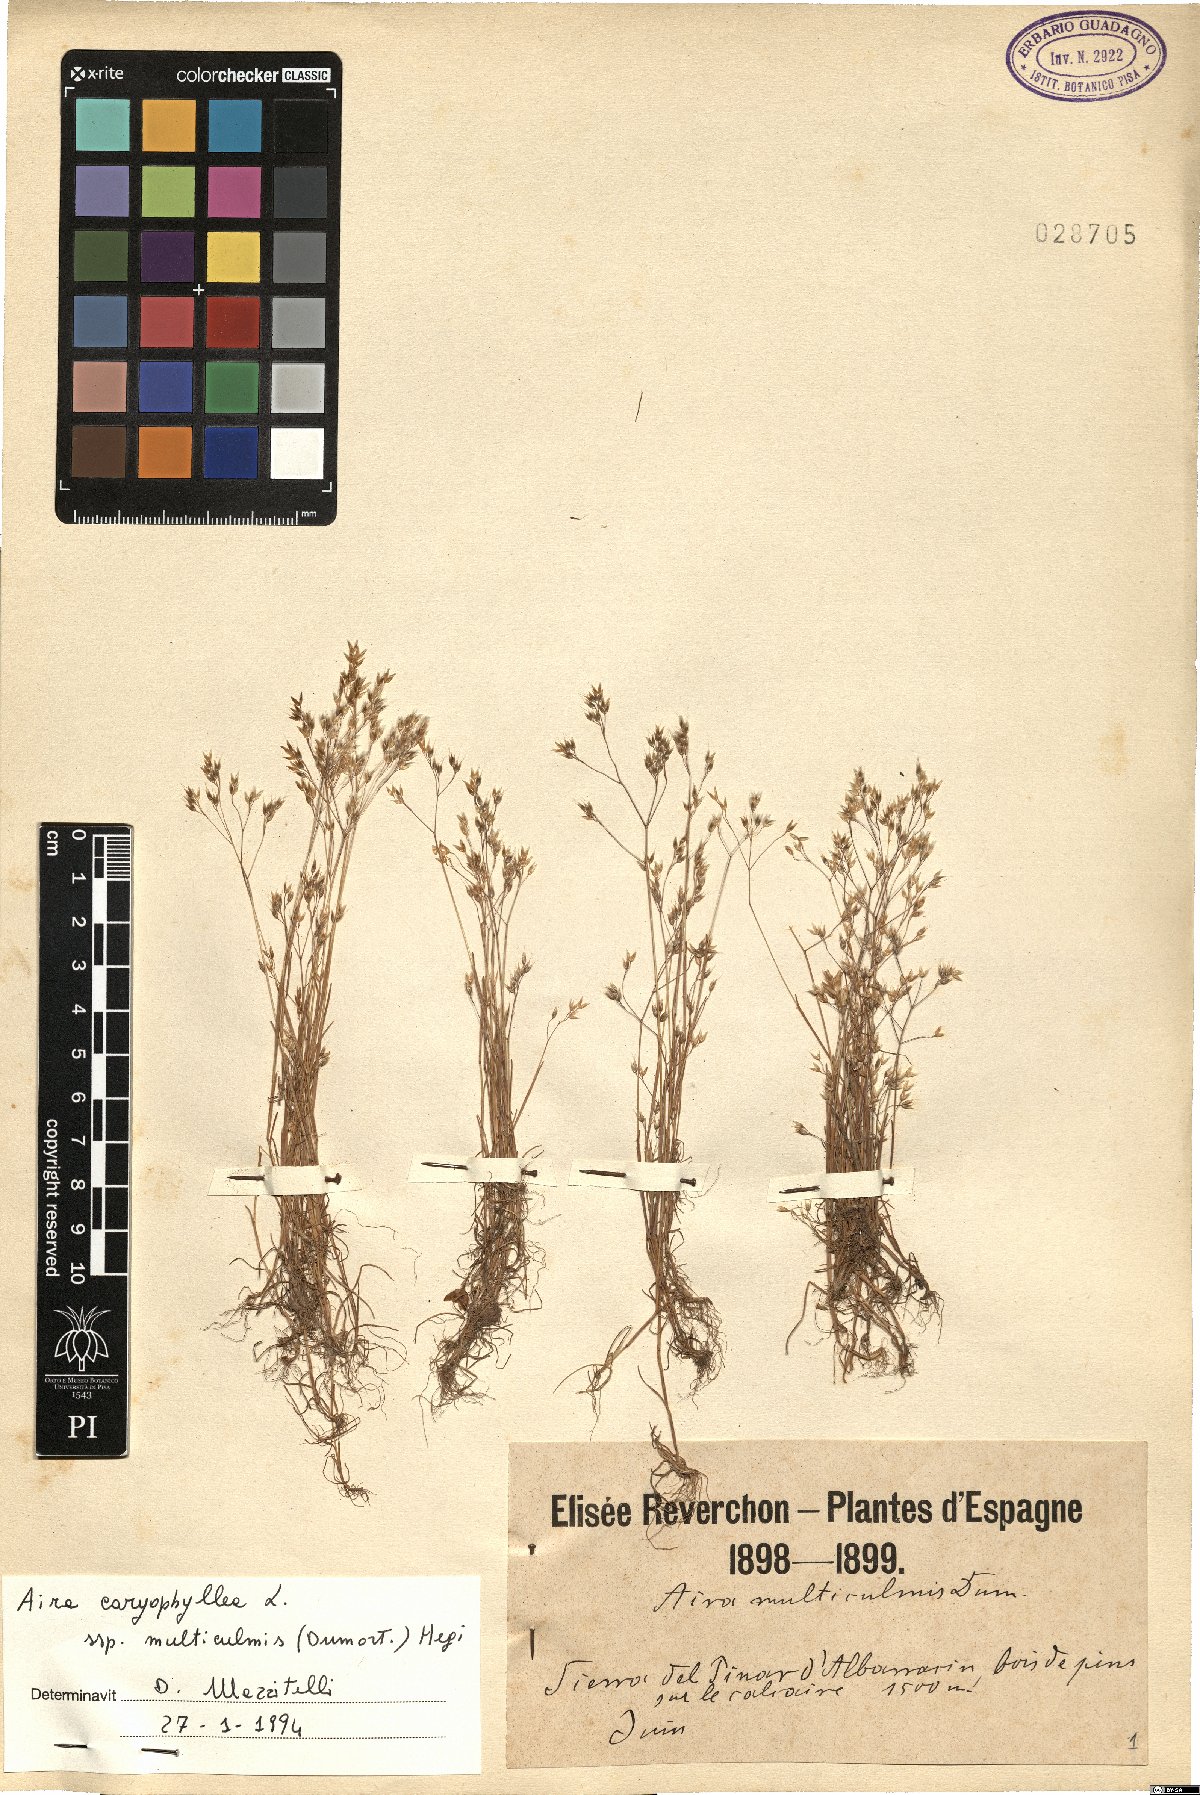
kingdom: Plantae
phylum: Tracheophyta
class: Liliopsida
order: Poales
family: Poaceae
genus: Aira
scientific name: Aira caryophyllea
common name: Silver hairgrass
